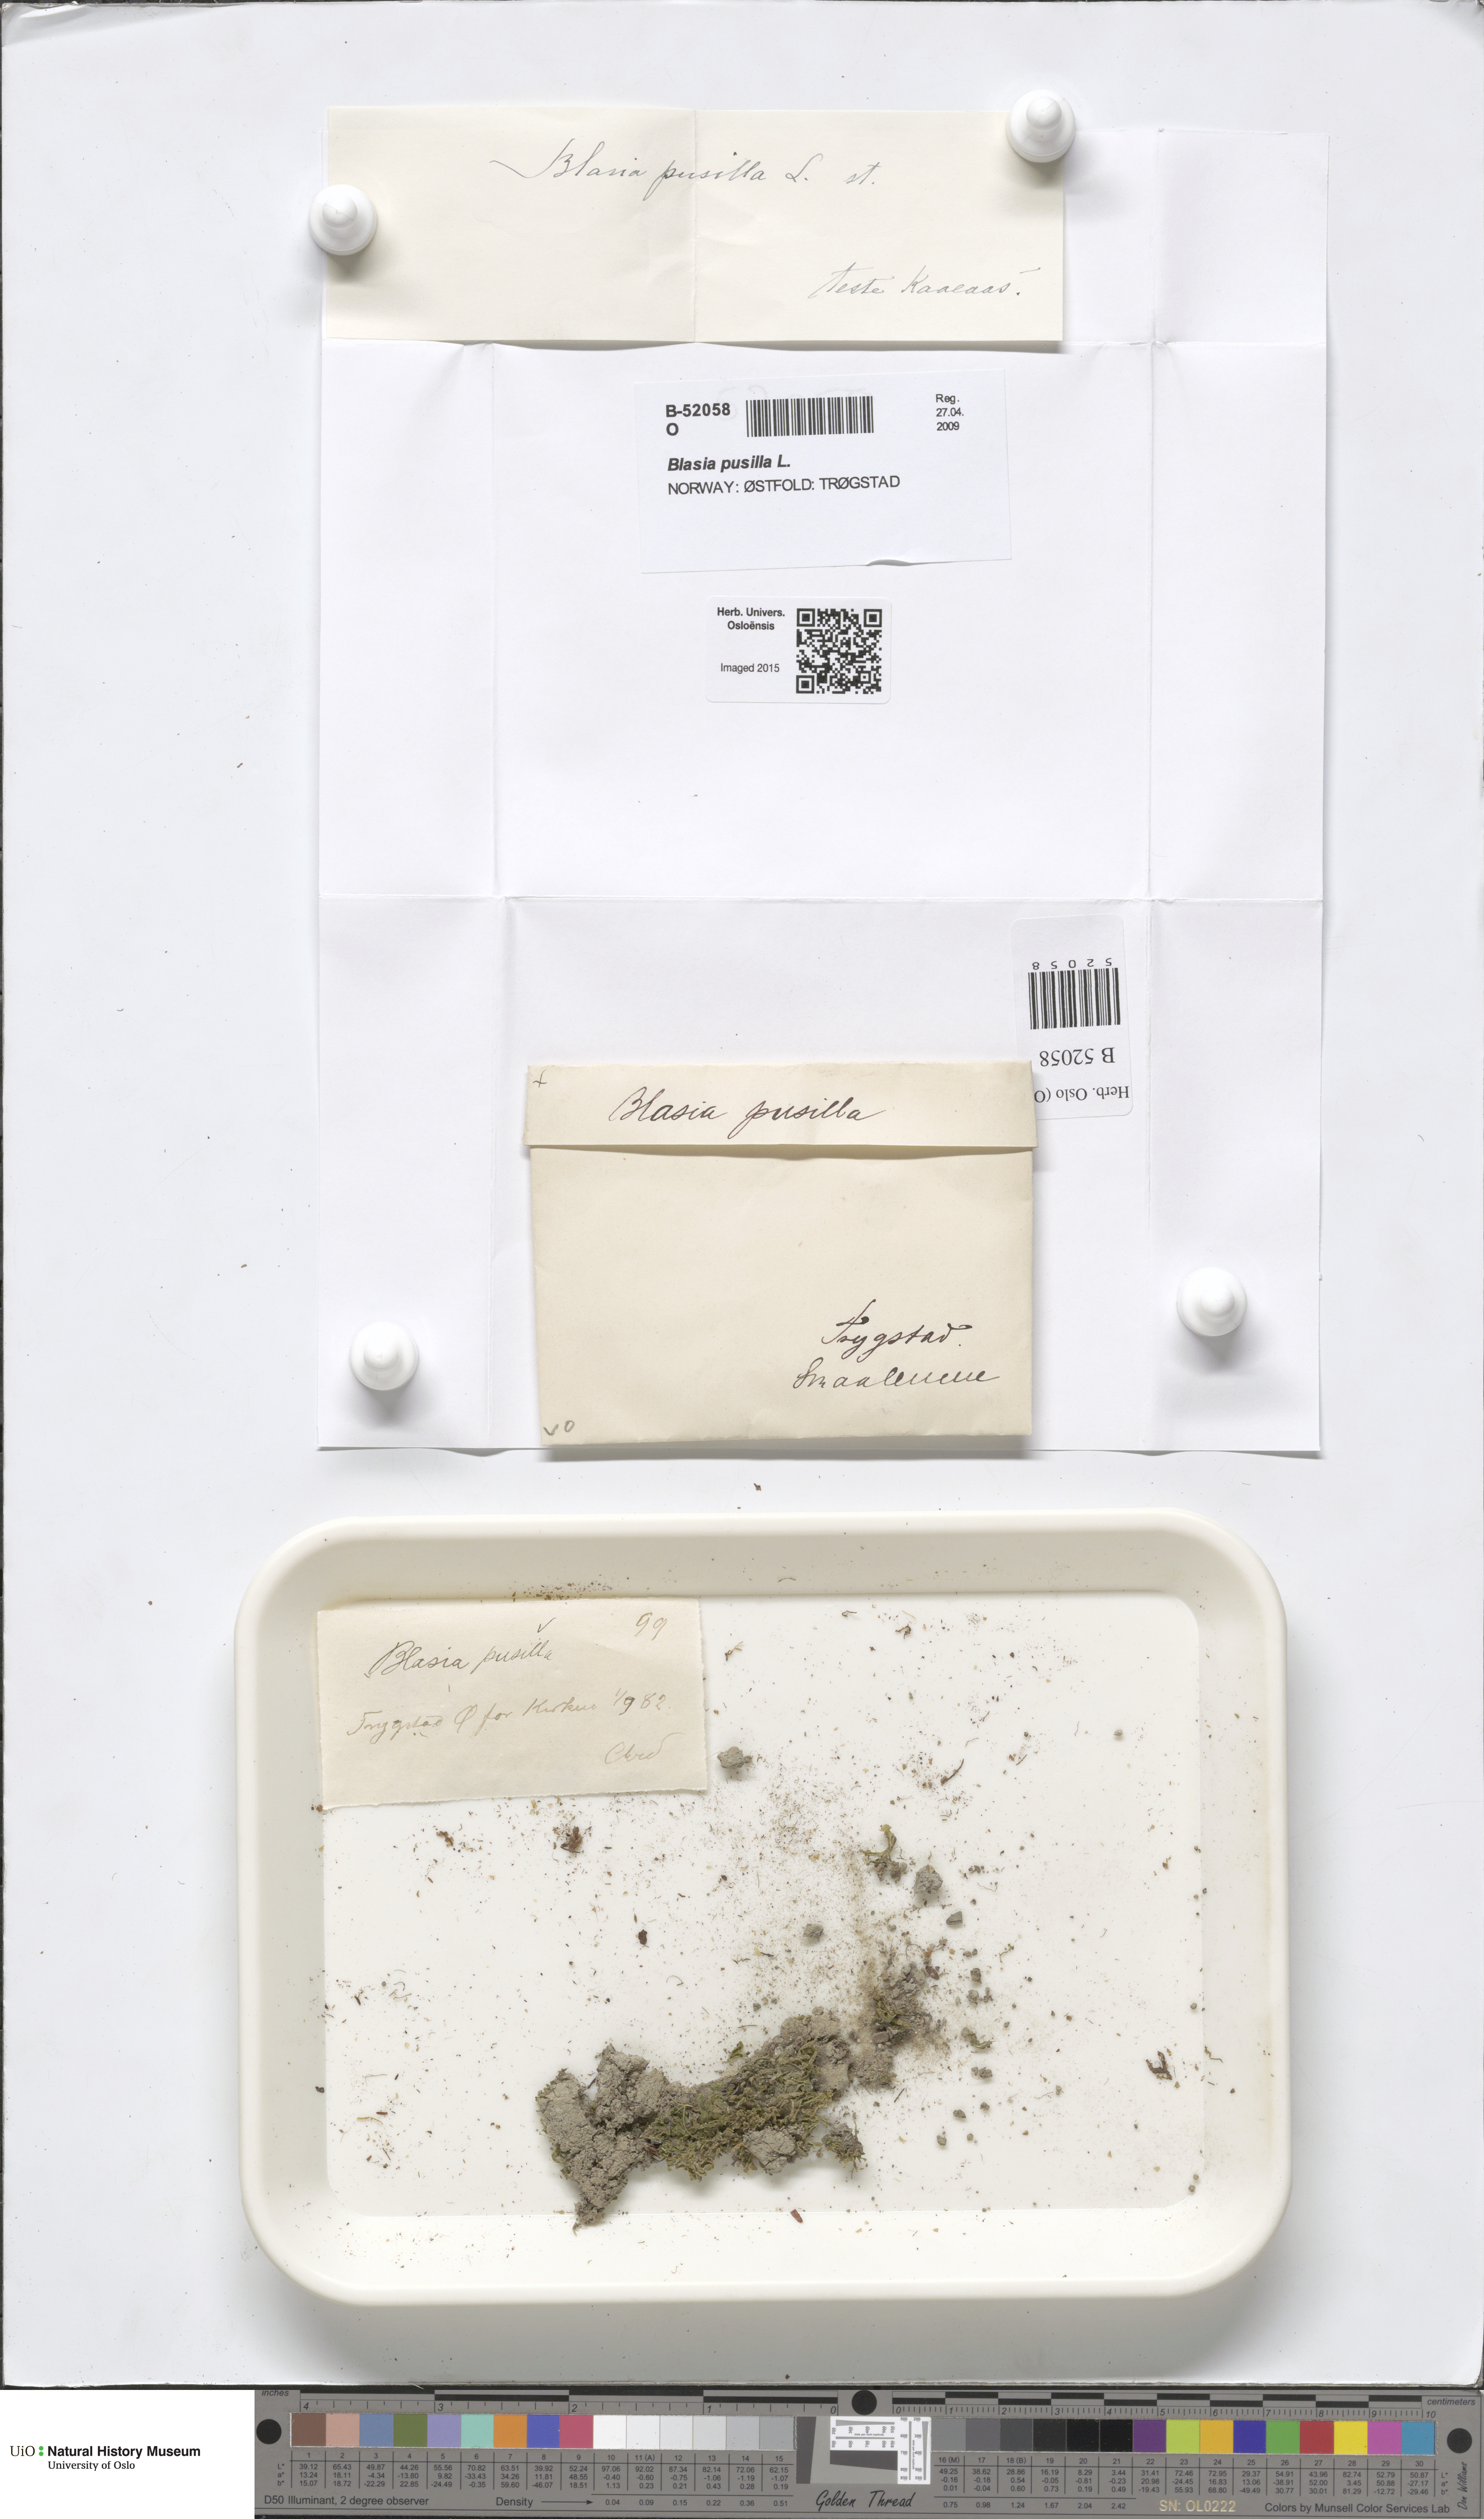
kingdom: Plantae
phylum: Marchantiophyta
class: Marchantiopsida
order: Blasiales
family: Blasiaceae
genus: Blasia
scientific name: Blasia pusilla
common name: Common kettlewort
